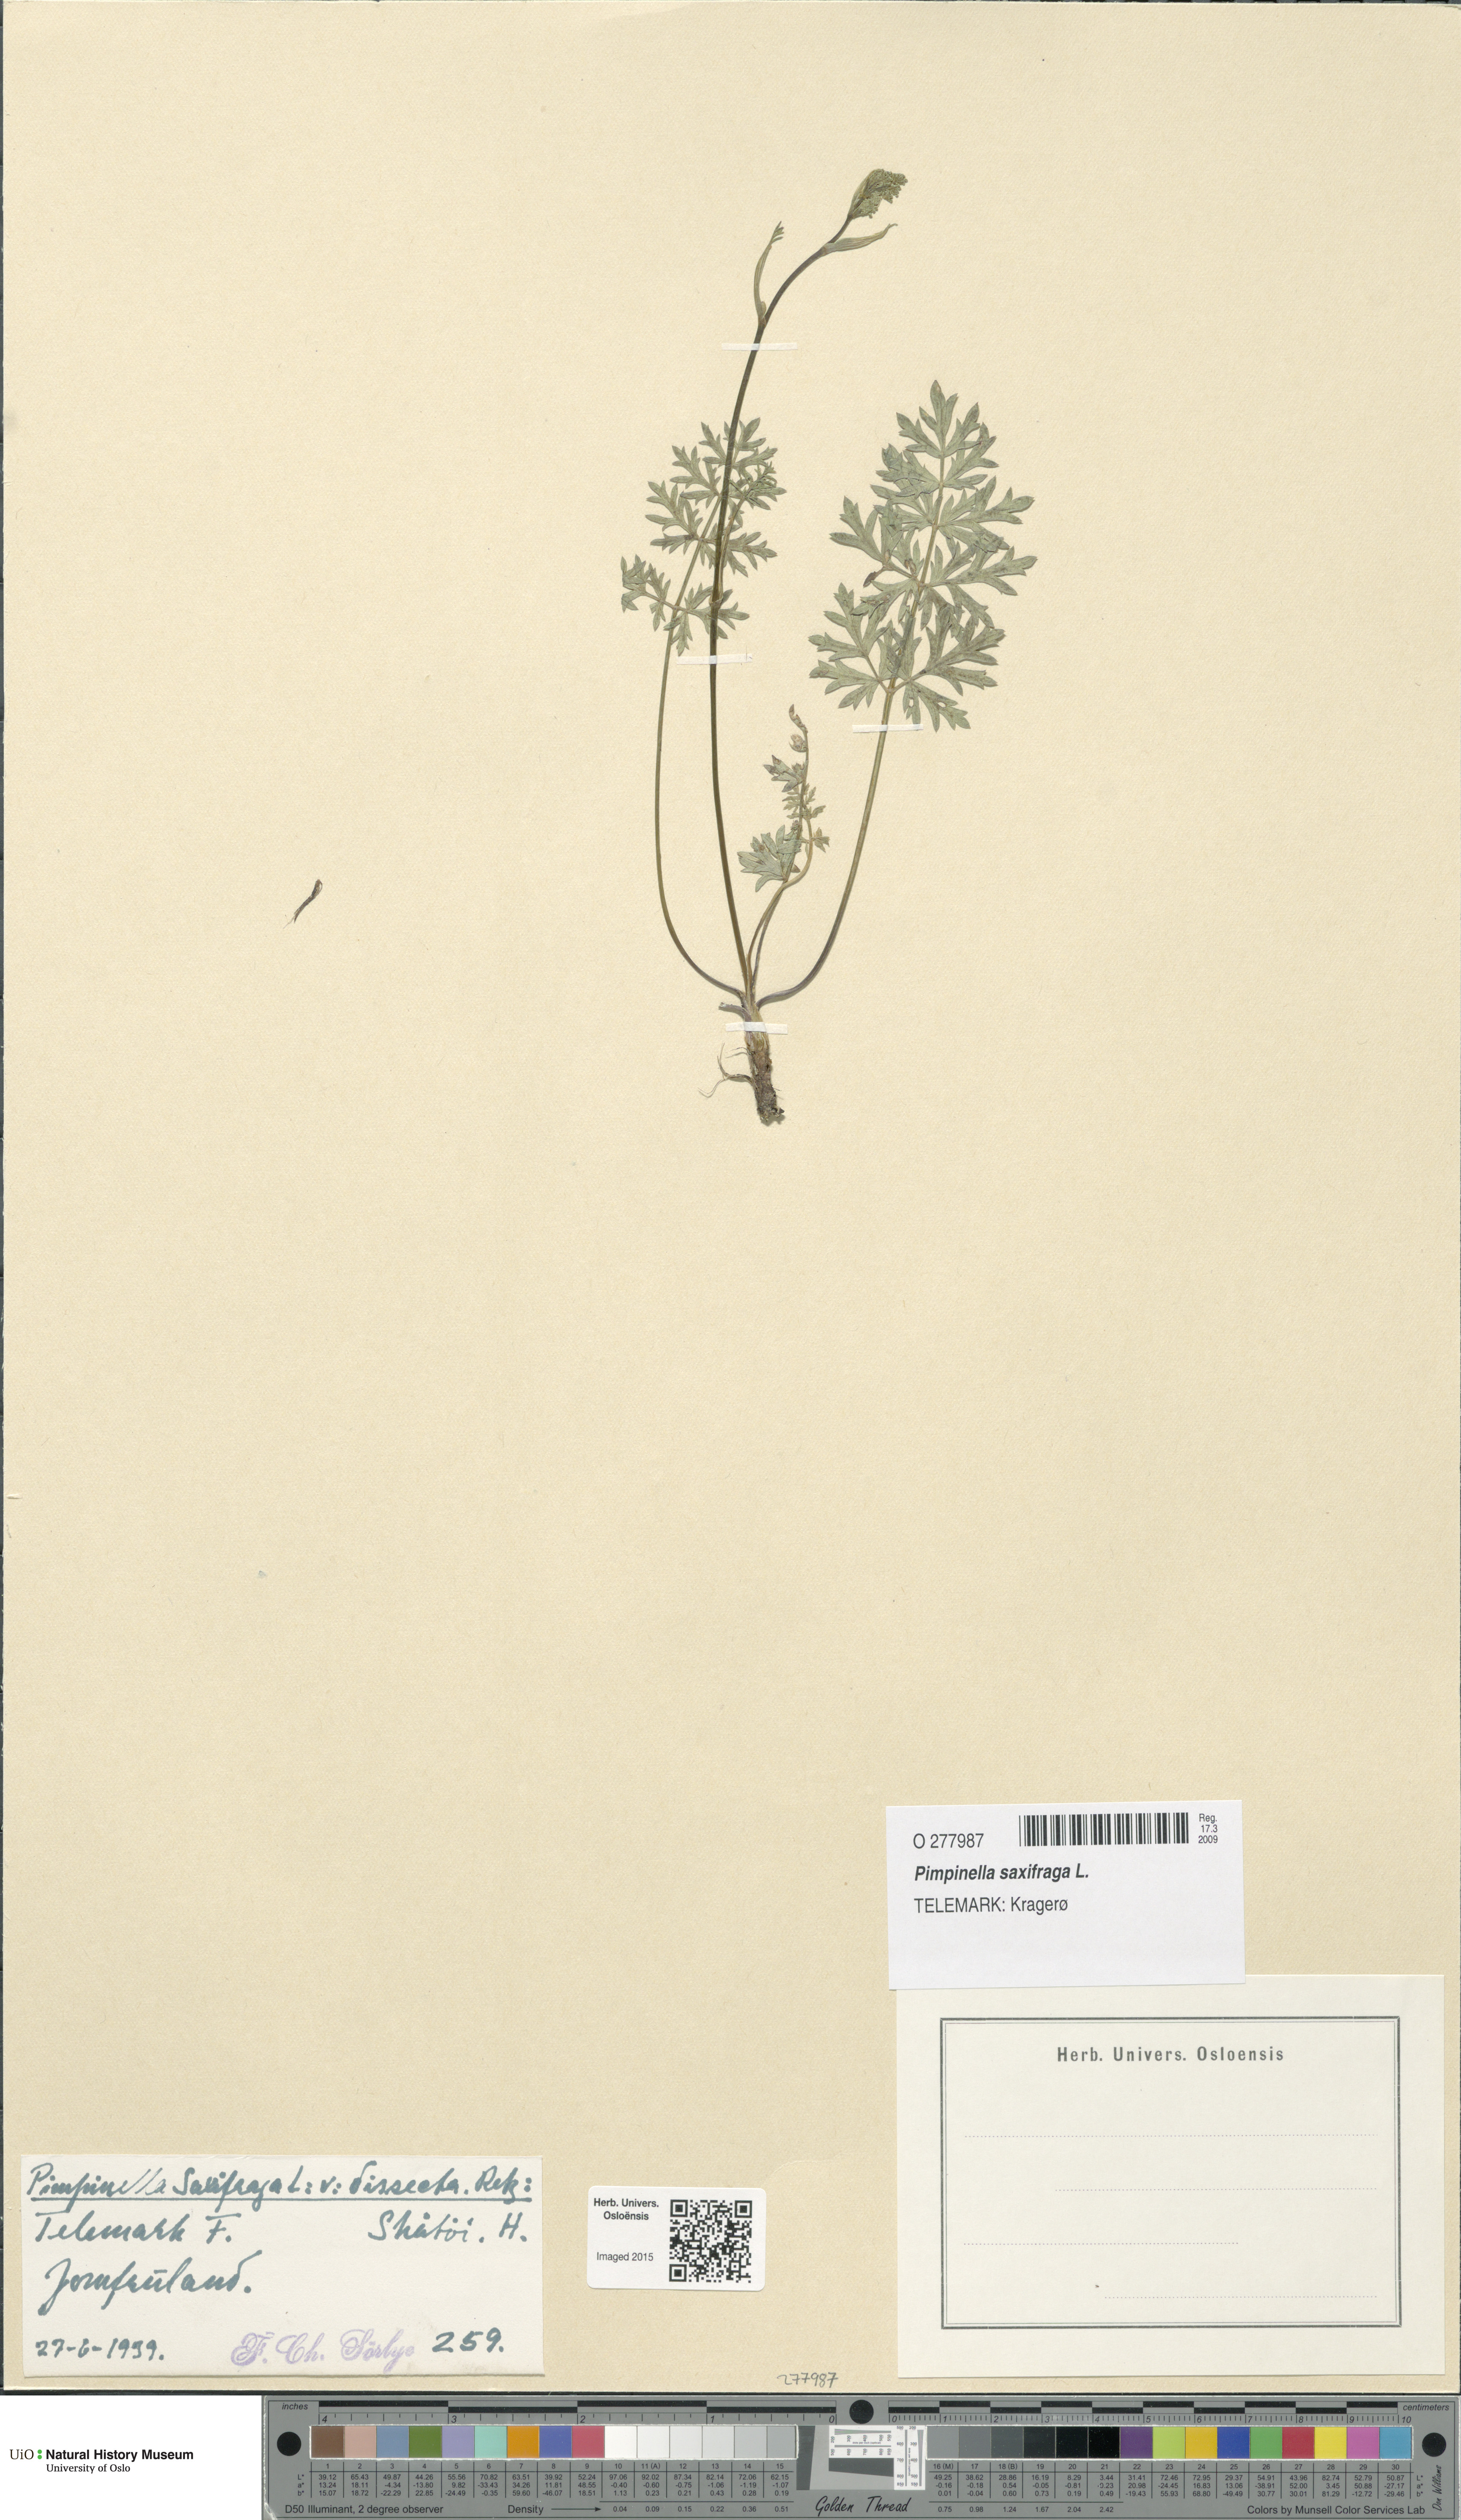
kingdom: Plantae
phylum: Tracheophyta
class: Magnoliopsida
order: Apiales
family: Apiaceae
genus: Pimpinella
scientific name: Pimpinella saxifraga
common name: Burnet-saxifrage
